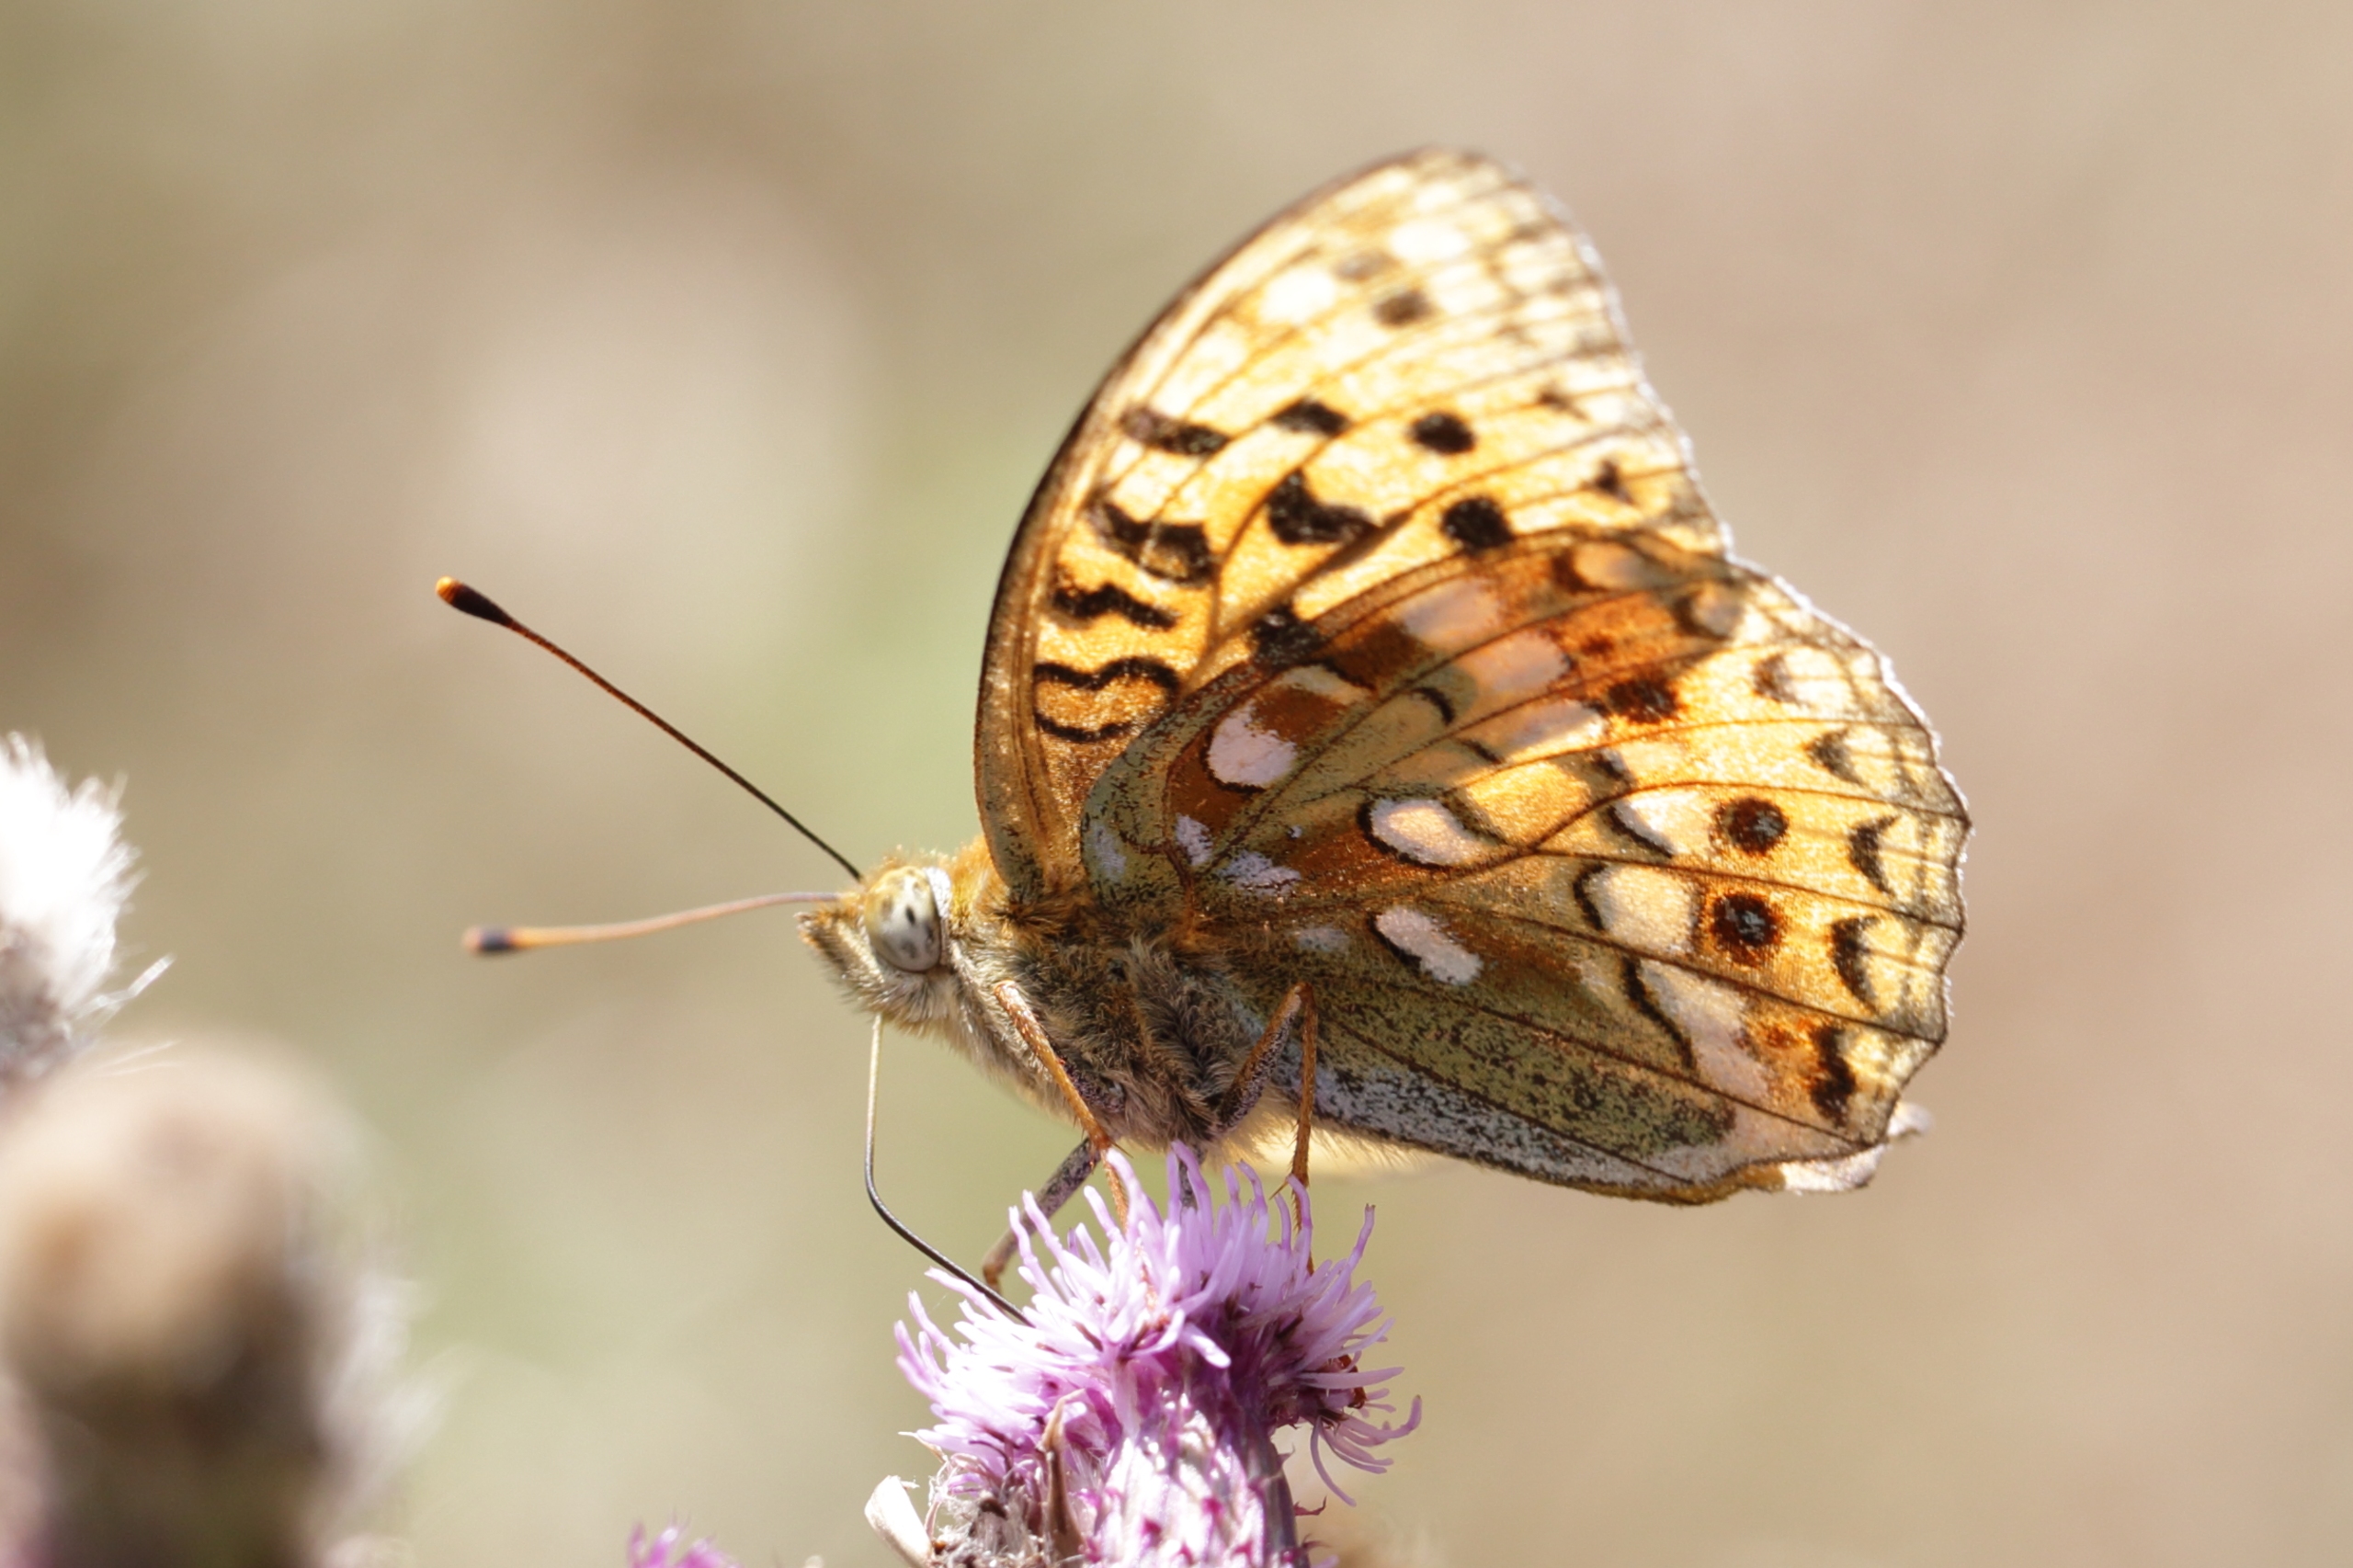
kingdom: Animalia
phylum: Arthropoda
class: Insecta
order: Lepidoptera
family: Nymphalidae
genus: Fabriciana
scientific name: Fabriciana adippe
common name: Skovperlemorsommerfugl
